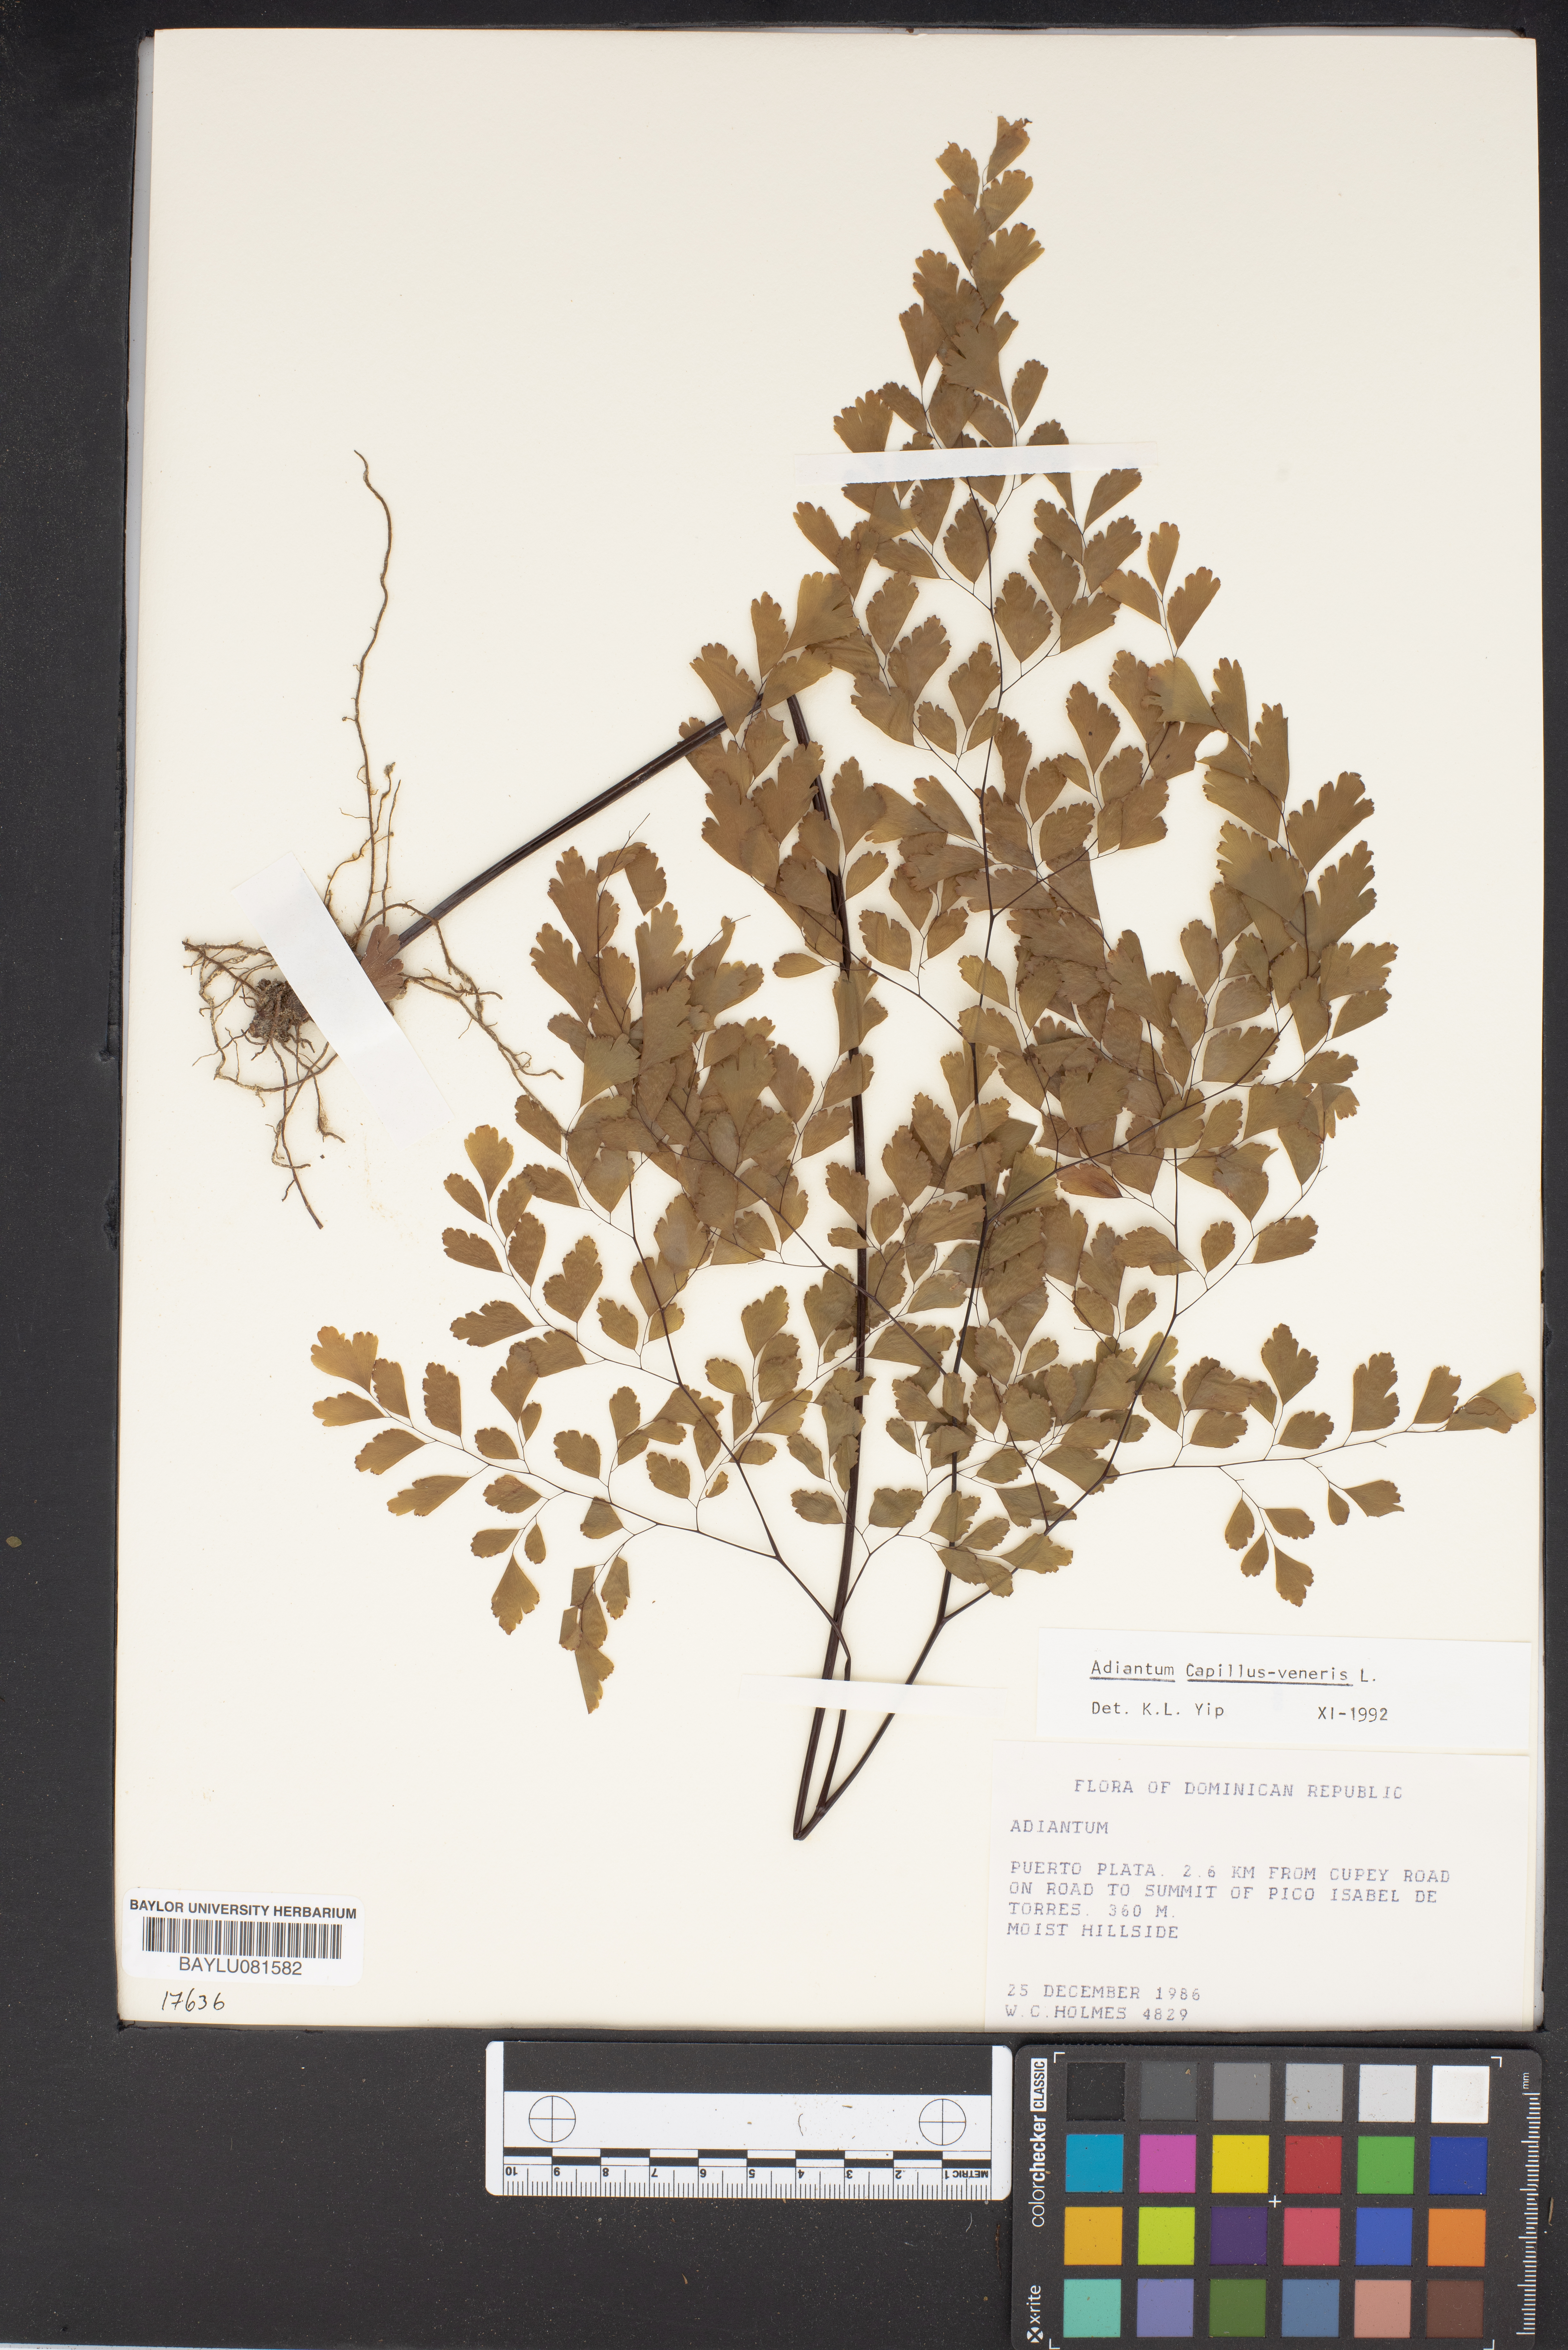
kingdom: Plantae
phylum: Tracheophyta
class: Polypodiopsida
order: Polypodiales
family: Pteridaceae
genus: Adiantum
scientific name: Adiantum
